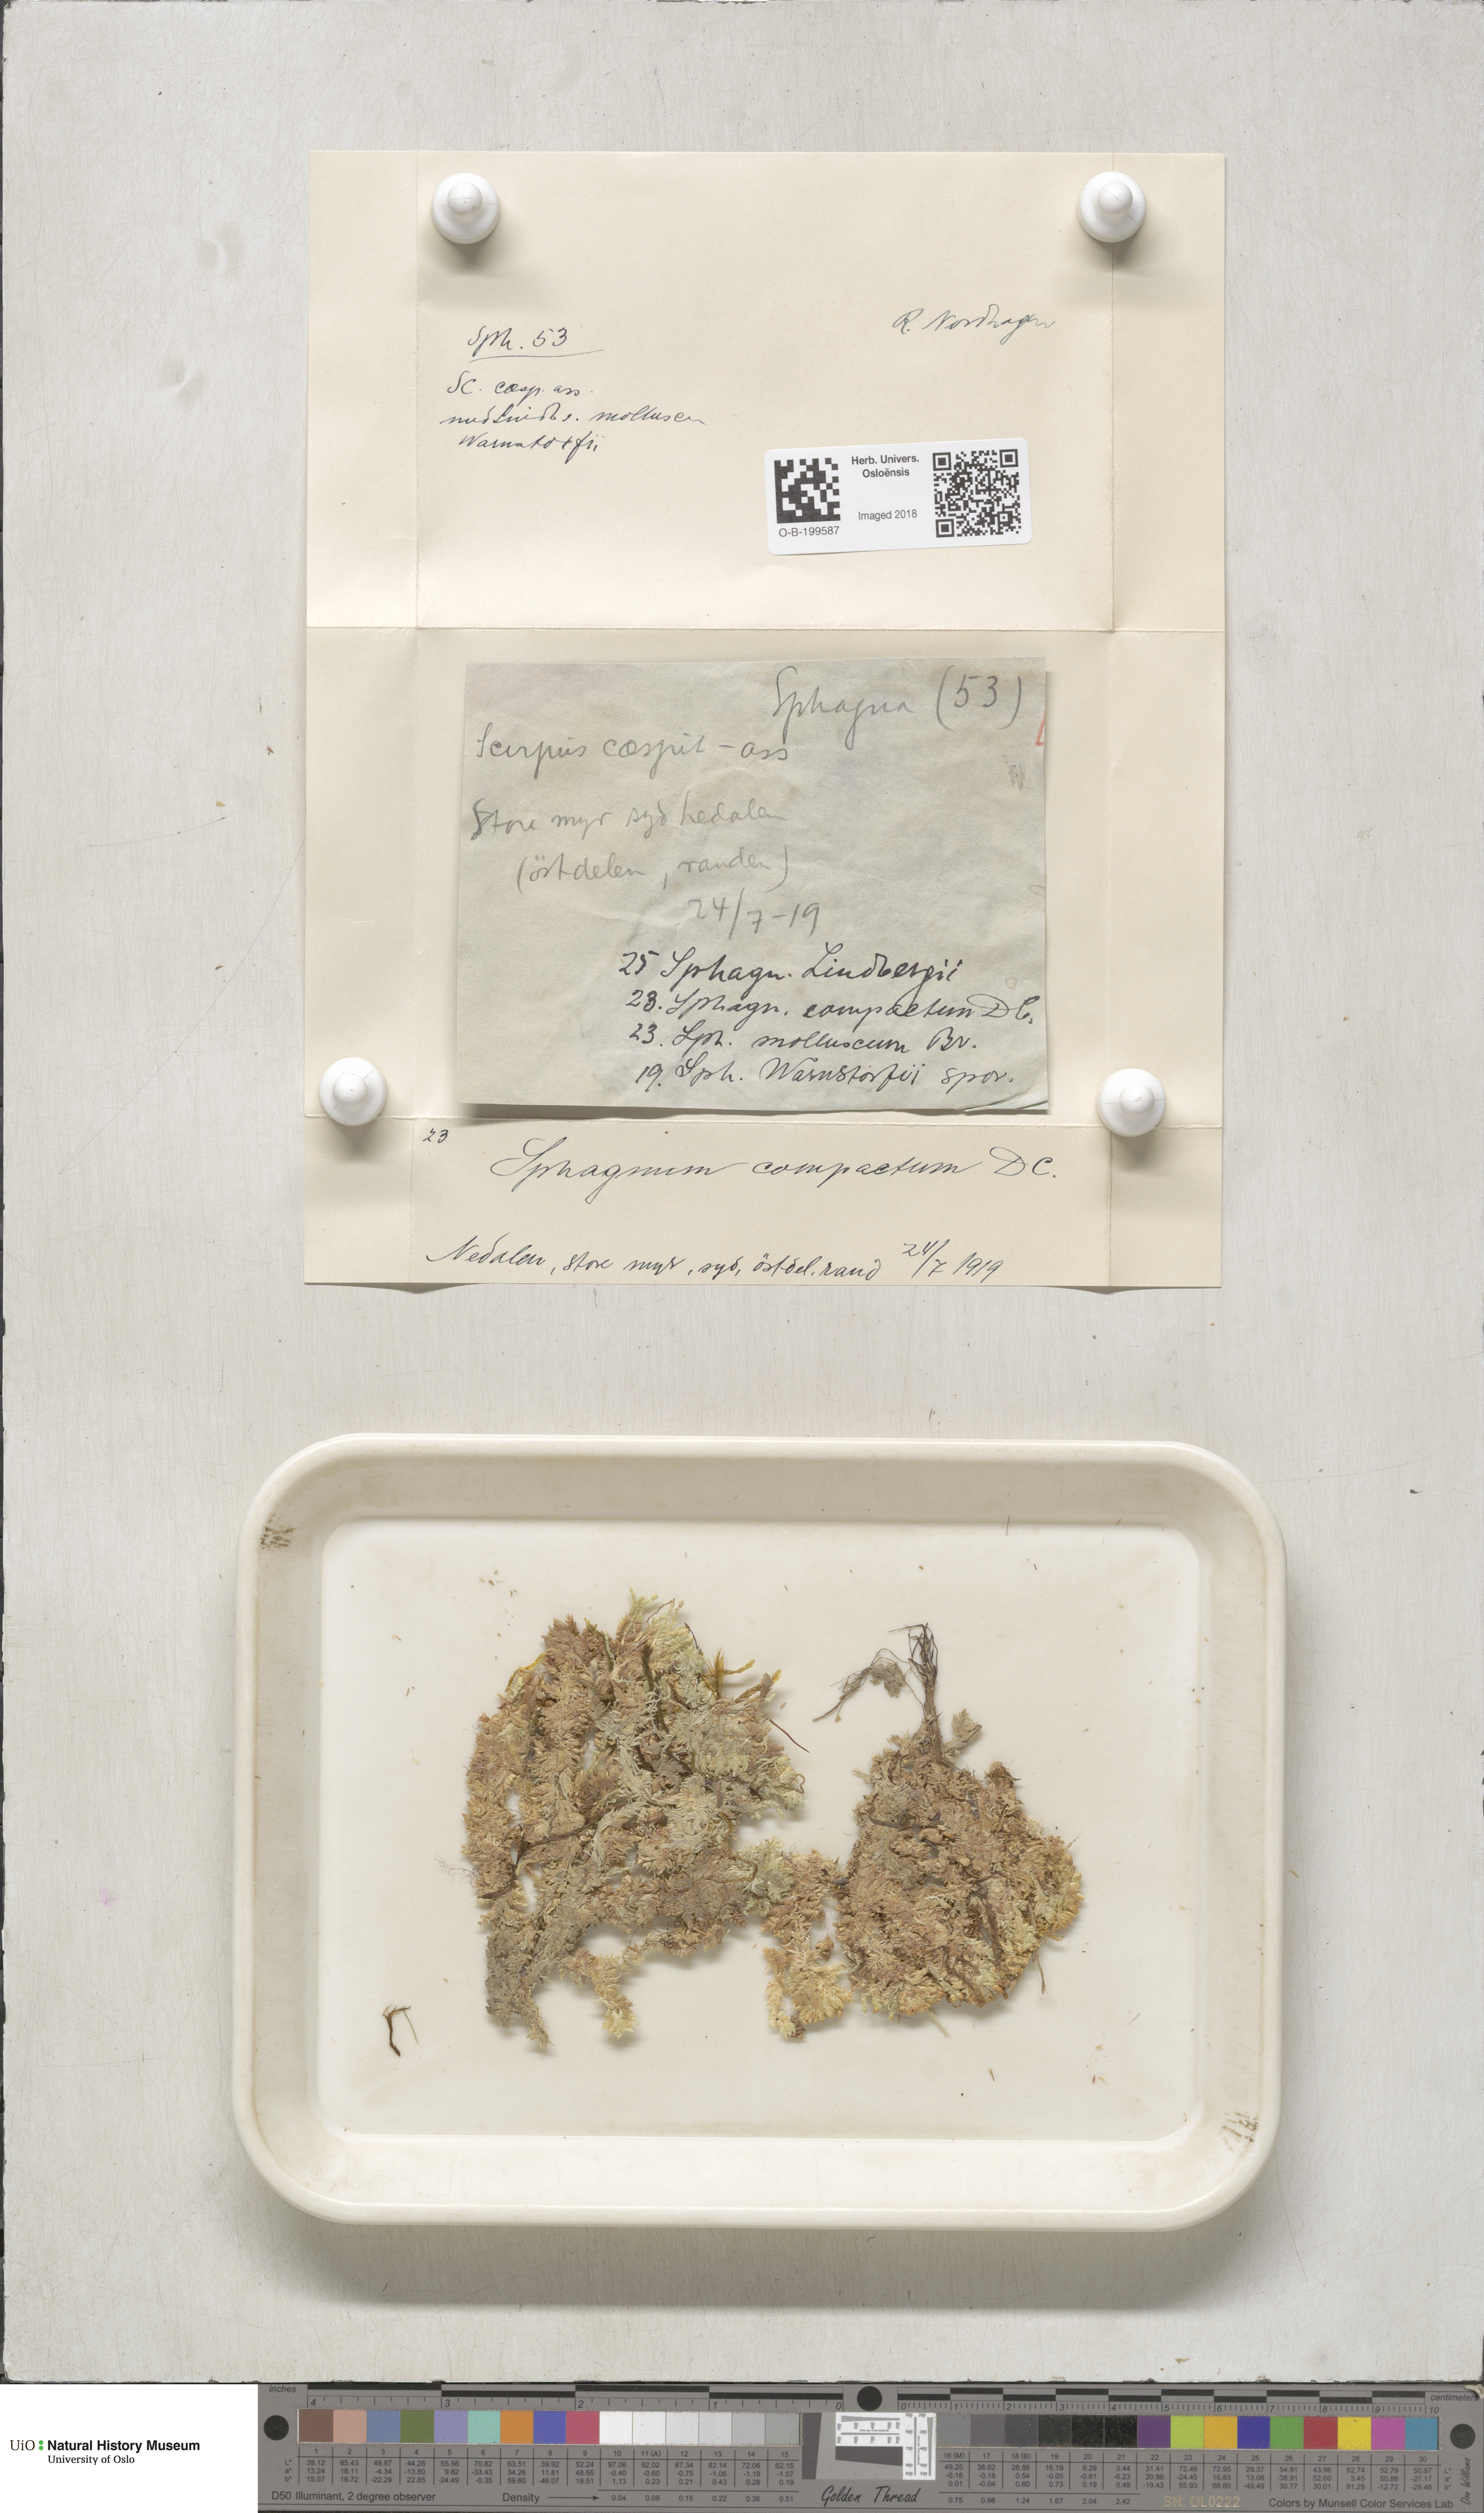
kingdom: Plantae
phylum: Bryophyta
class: Sphagnopsida
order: Sphagnales
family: Sphagnaceae
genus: Sphagnum
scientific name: Sphagnum compactum
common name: Compact peat moss
